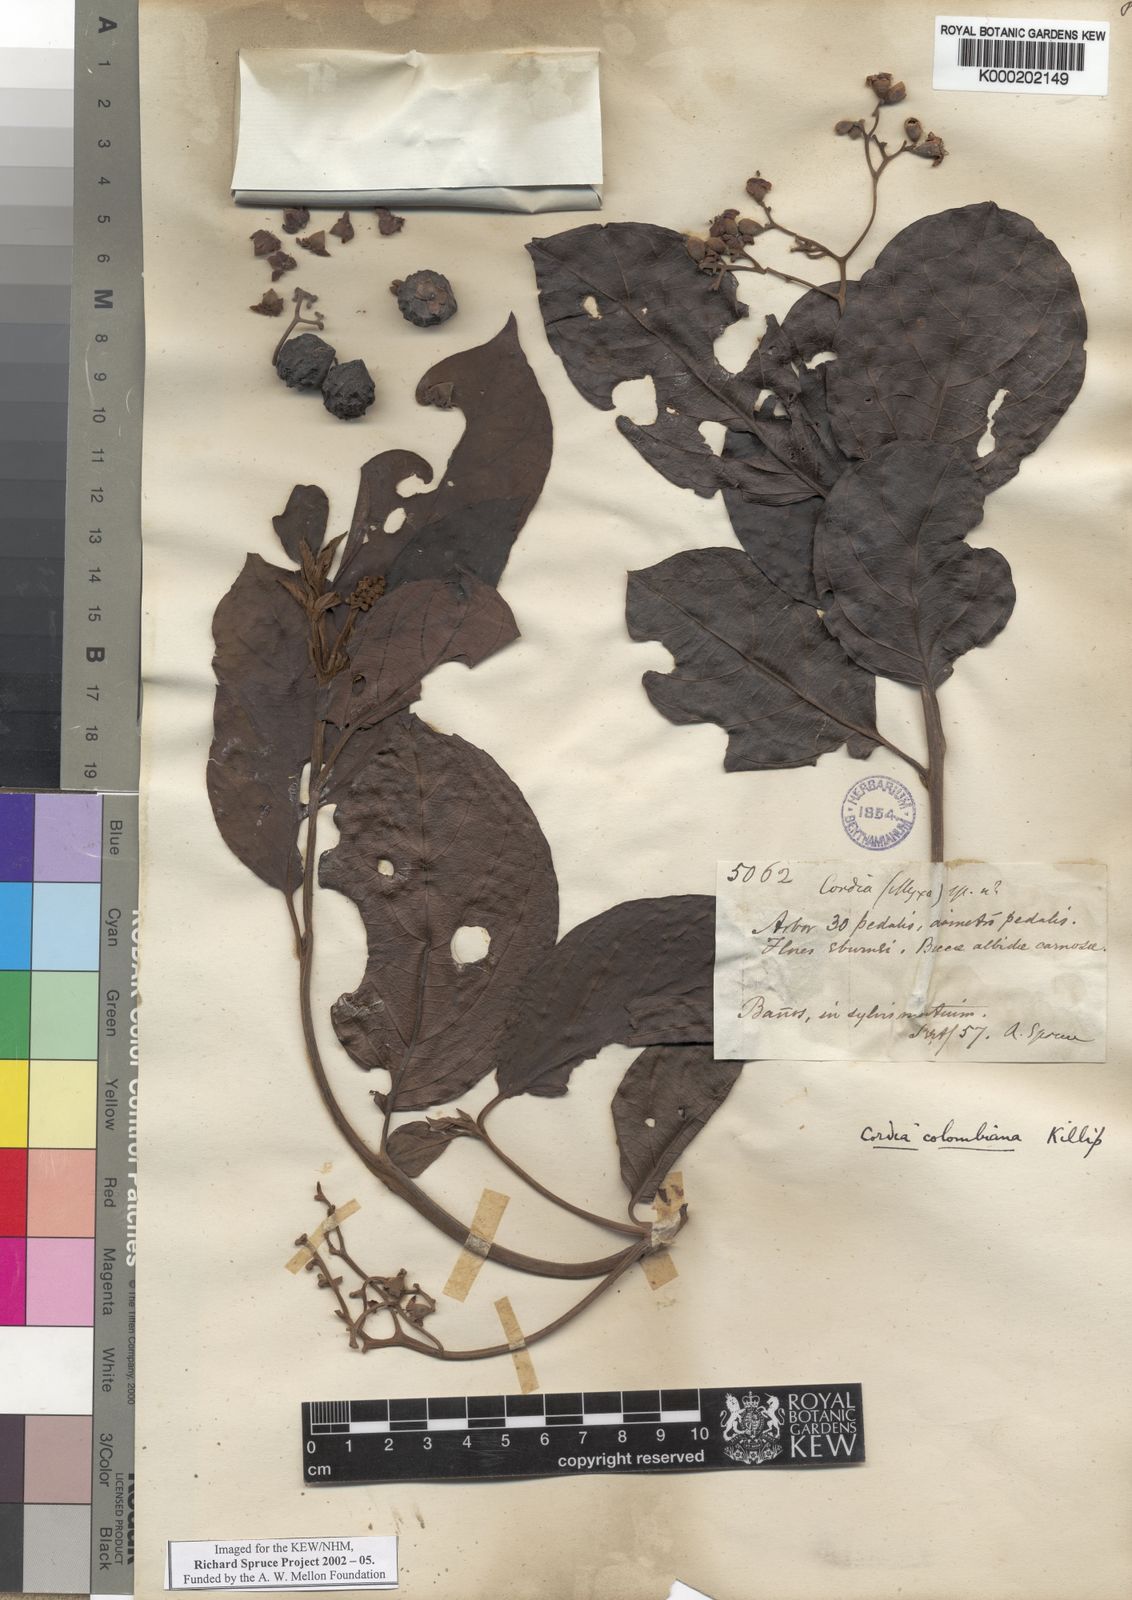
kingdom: Plantae
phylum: Tracheophyta
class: Magnoliopsida
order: Boraginales
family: Cordiaceae
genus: Cordia
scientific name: Cordia colombiana
